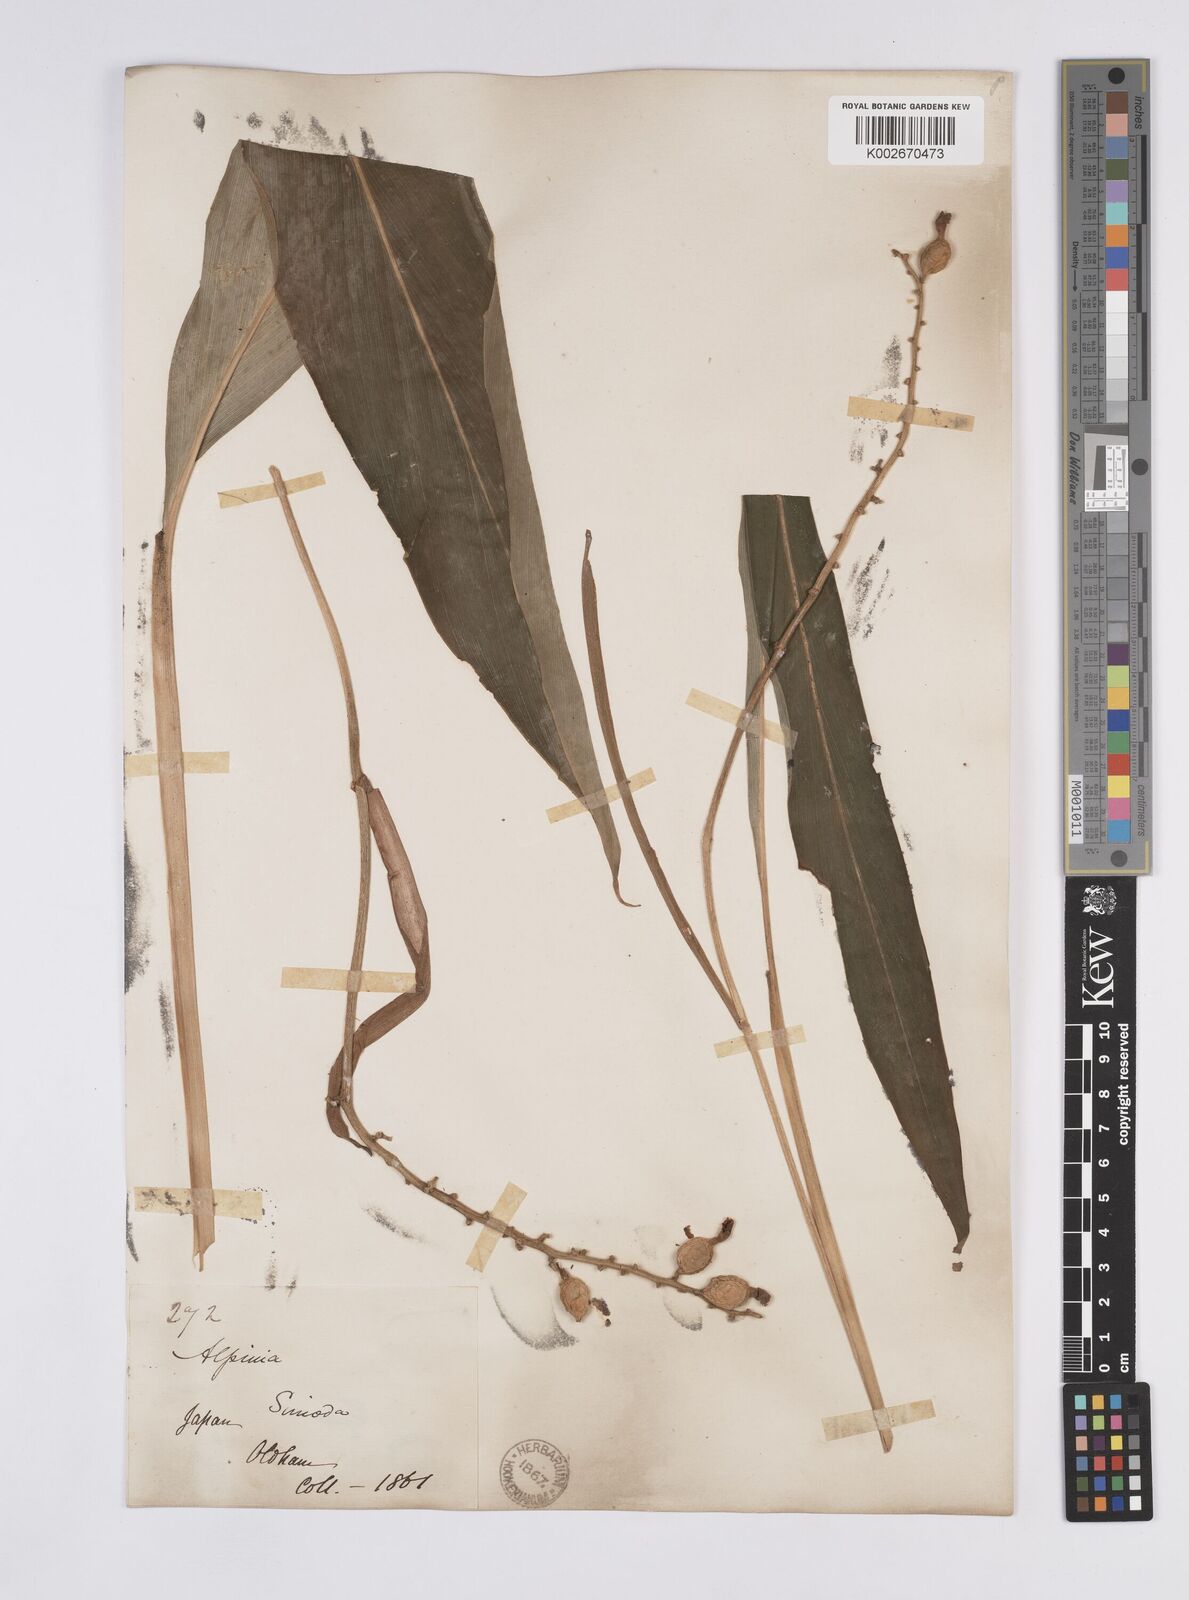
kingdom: Plantae
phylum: Tracheophyta
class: Liliopsida
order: Zingiberales
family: Zingiberaceae
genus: Alpinia
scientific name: Alpinia japonica
